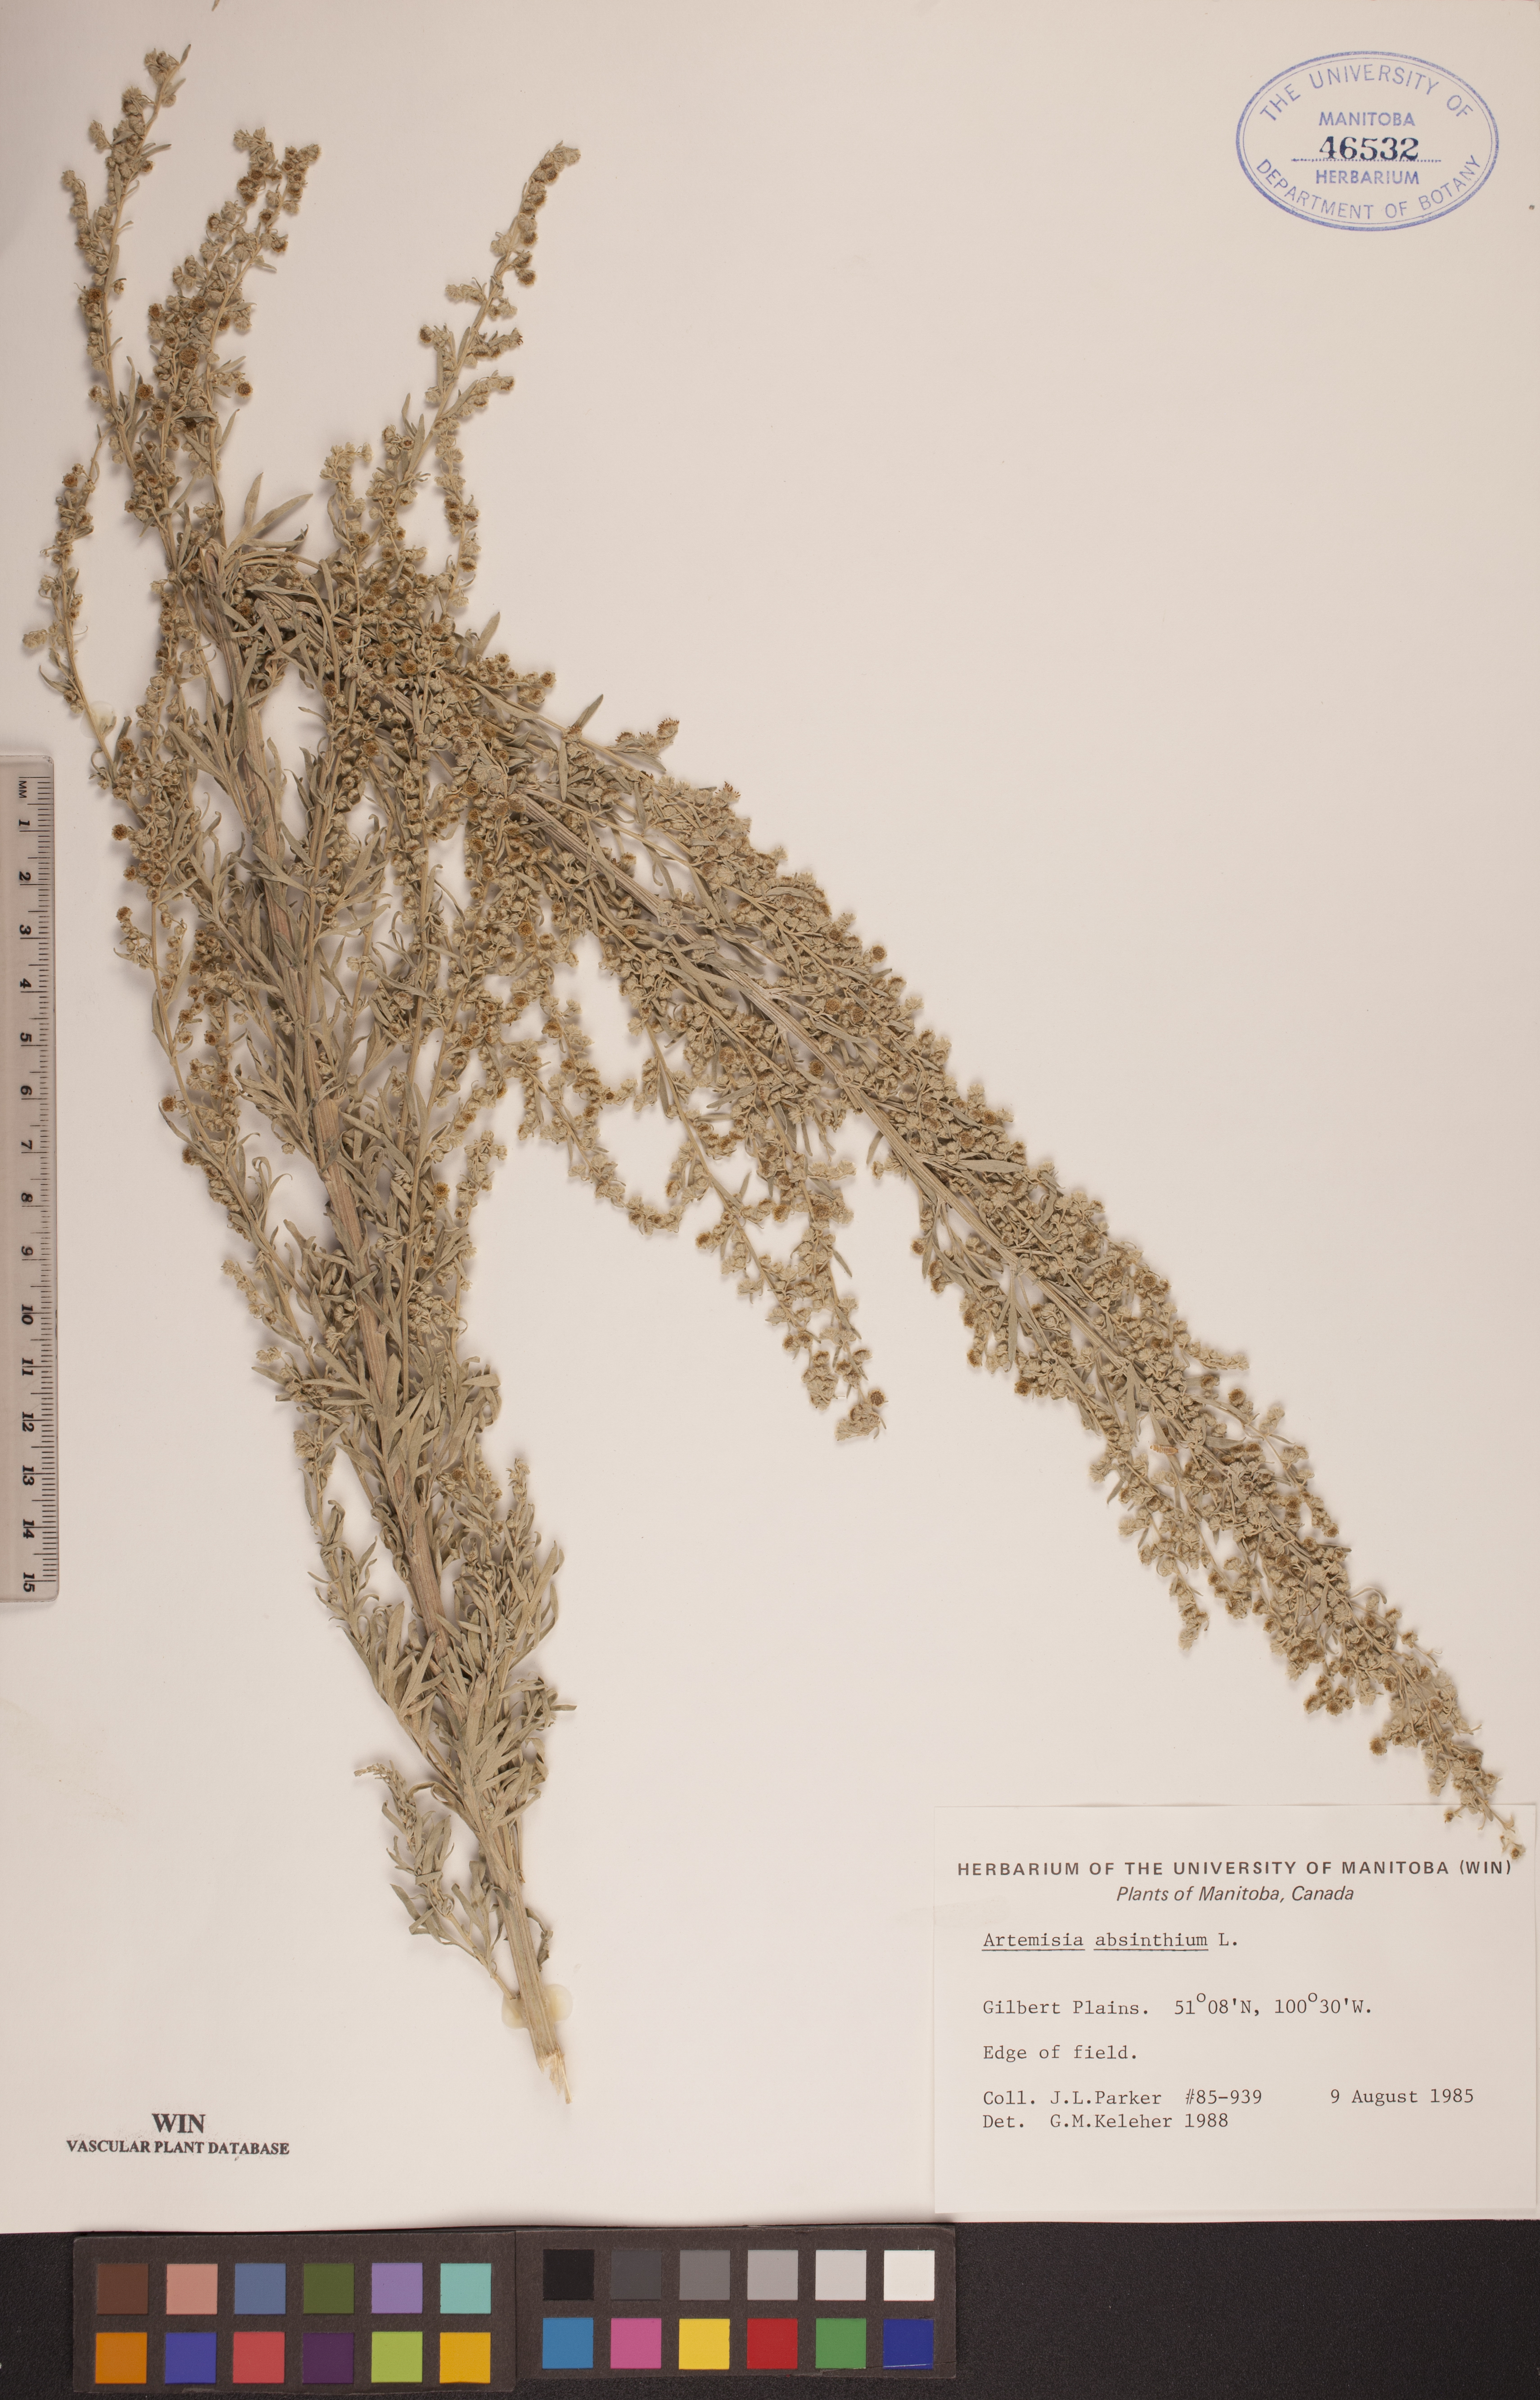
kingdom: Plantae
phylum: Tracheophyta
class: Magnoliopsida
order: Asterales
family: Asteraceae
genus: Artemisia
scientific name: Artemisia absinthium
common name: Wormwood
